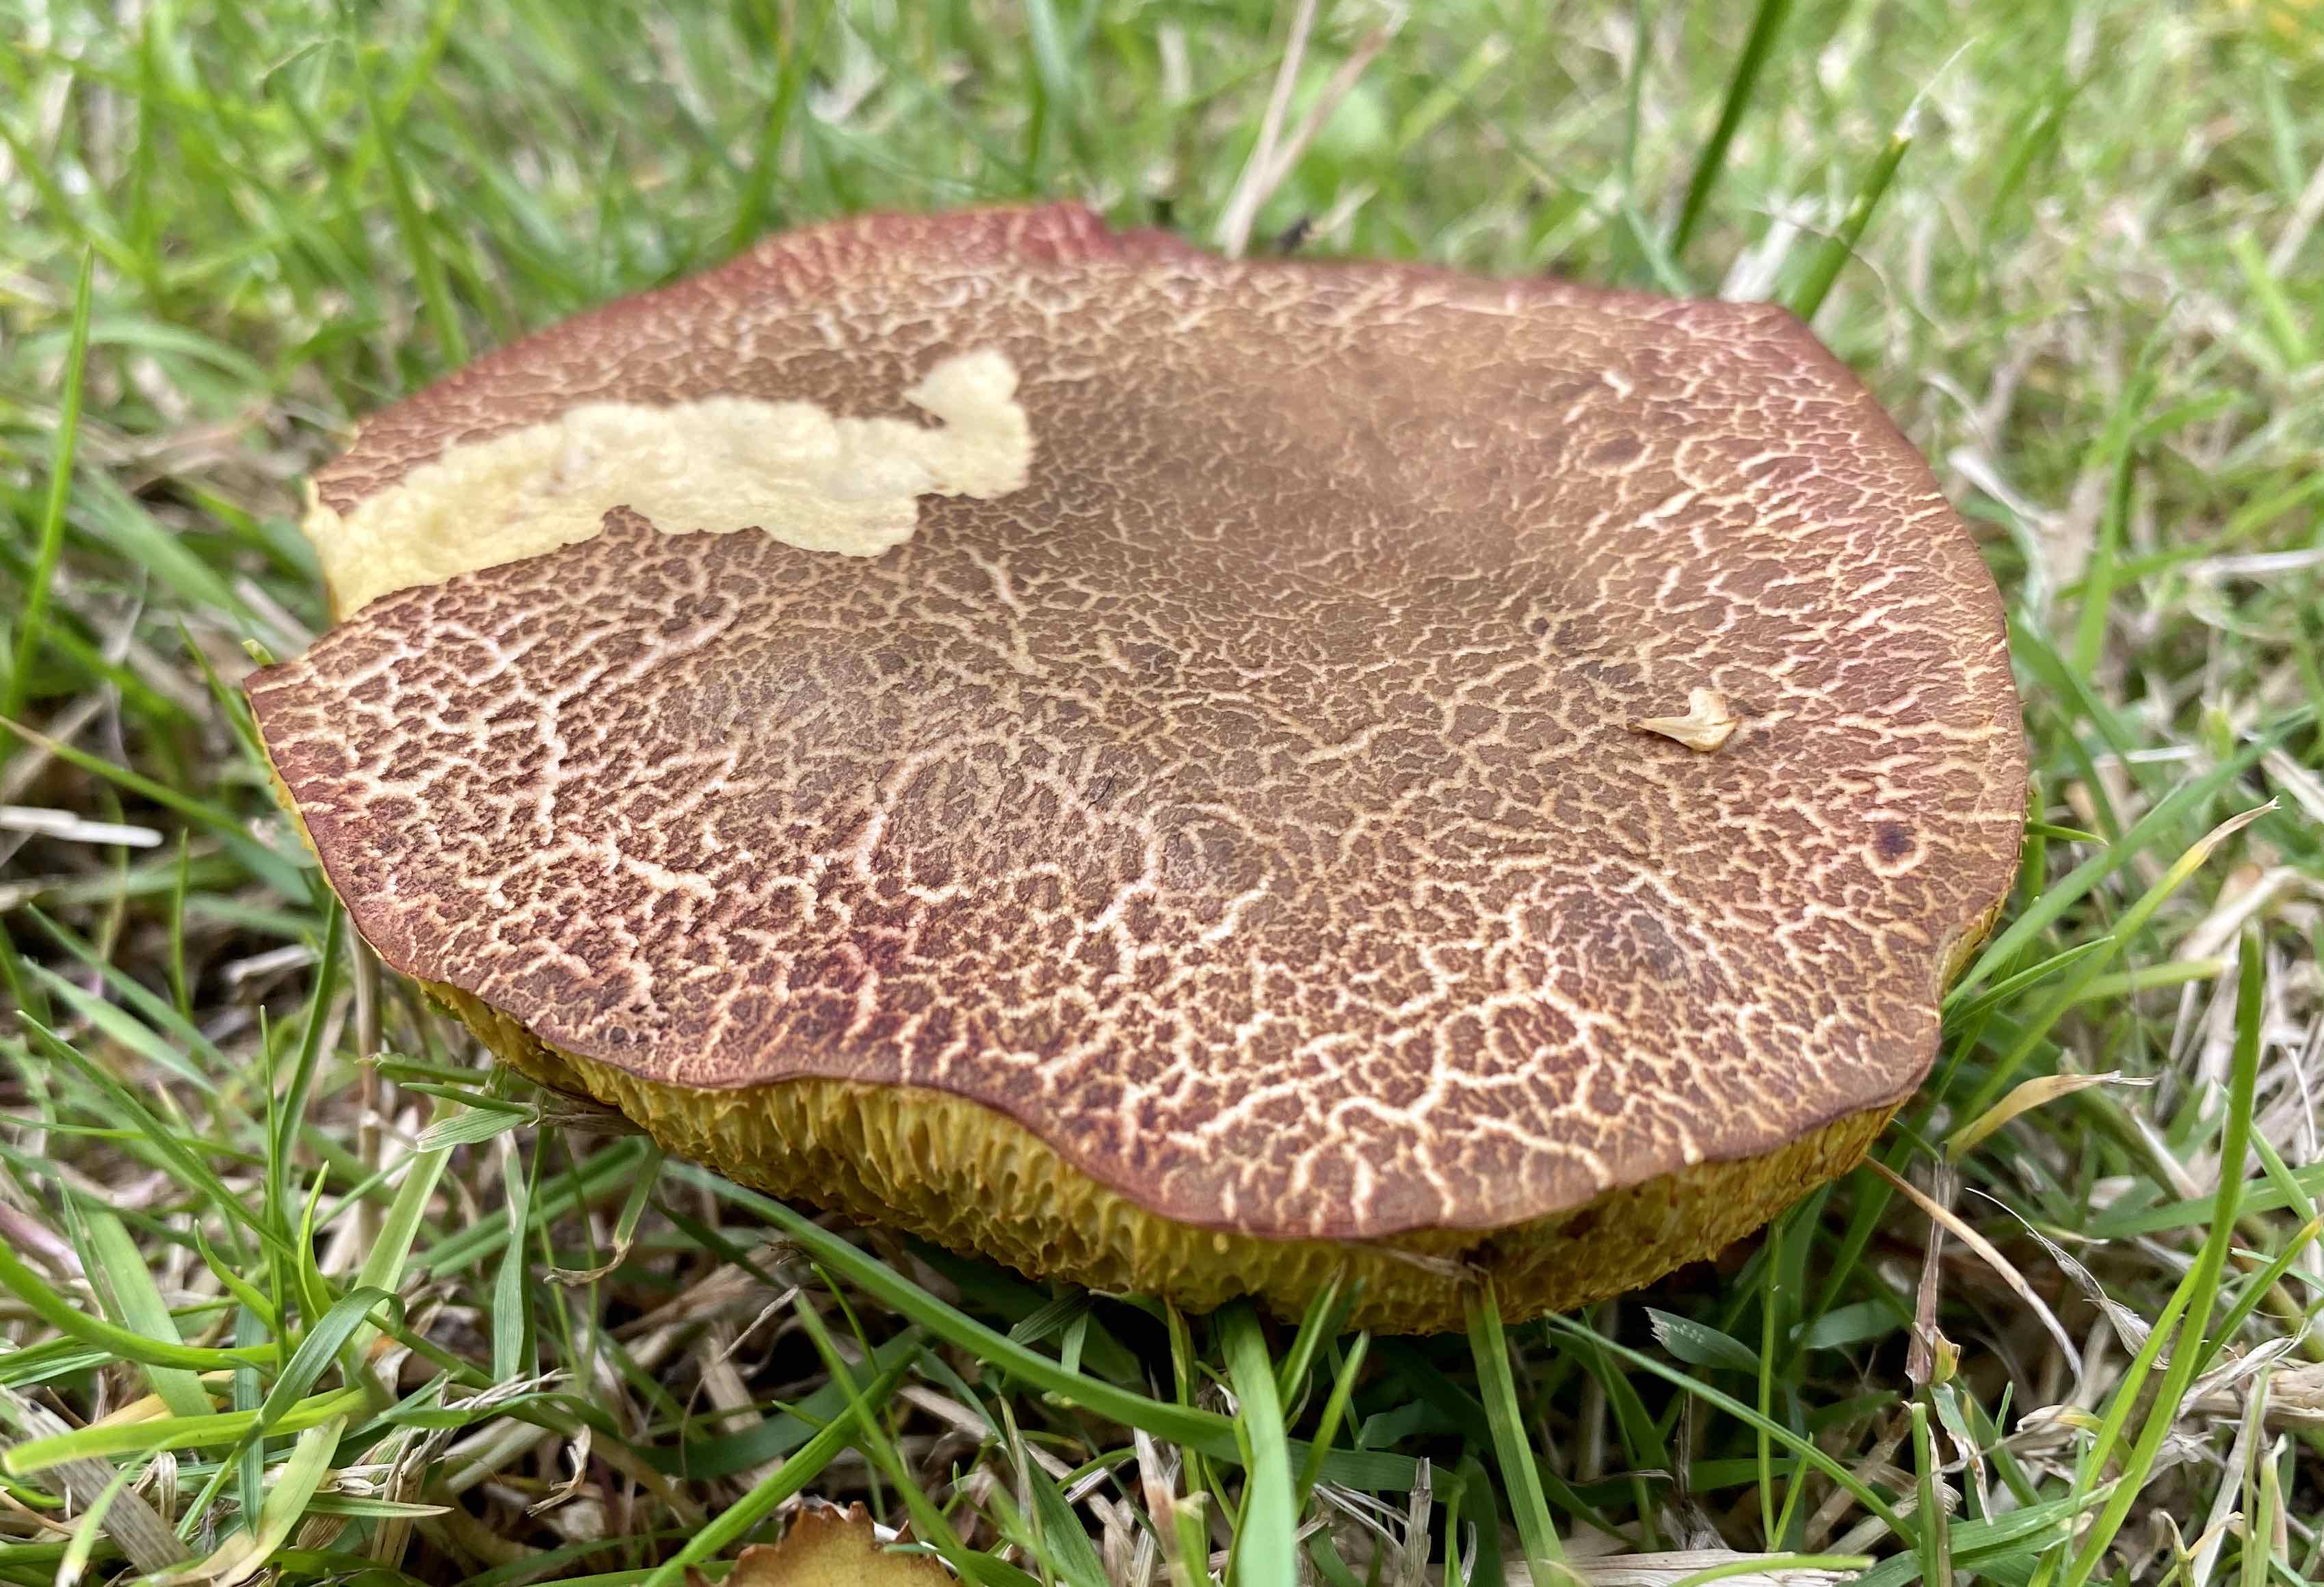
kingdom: Fungi
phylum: Basidiomycota
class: Agaricomycetes
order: Boletales
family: Boletaceae
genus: Xerocomellus
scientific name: Xerocomellus cisalpinus
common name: finsprukken rørhat
